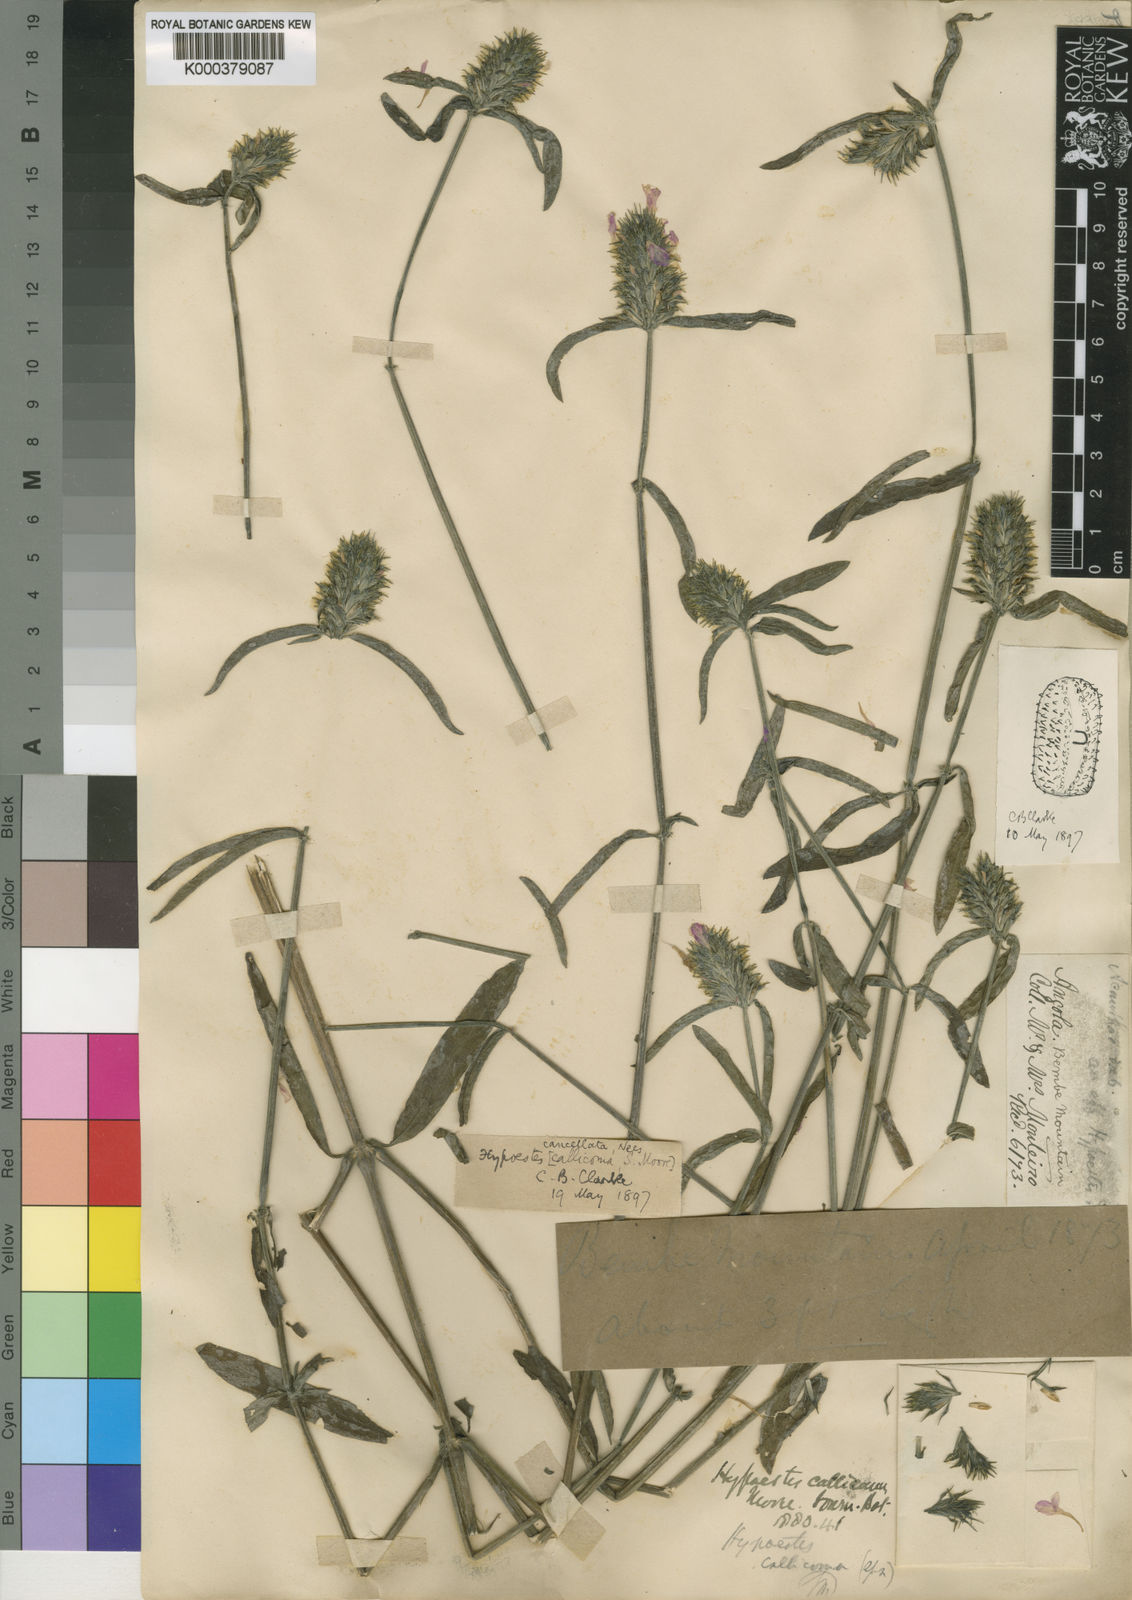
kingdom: Plantae
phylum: Tracheophyta
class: Magnoliopsida
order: Lamiales
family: Acanthaceae
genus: Hypoestes
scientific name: Hypoestes cancellata
